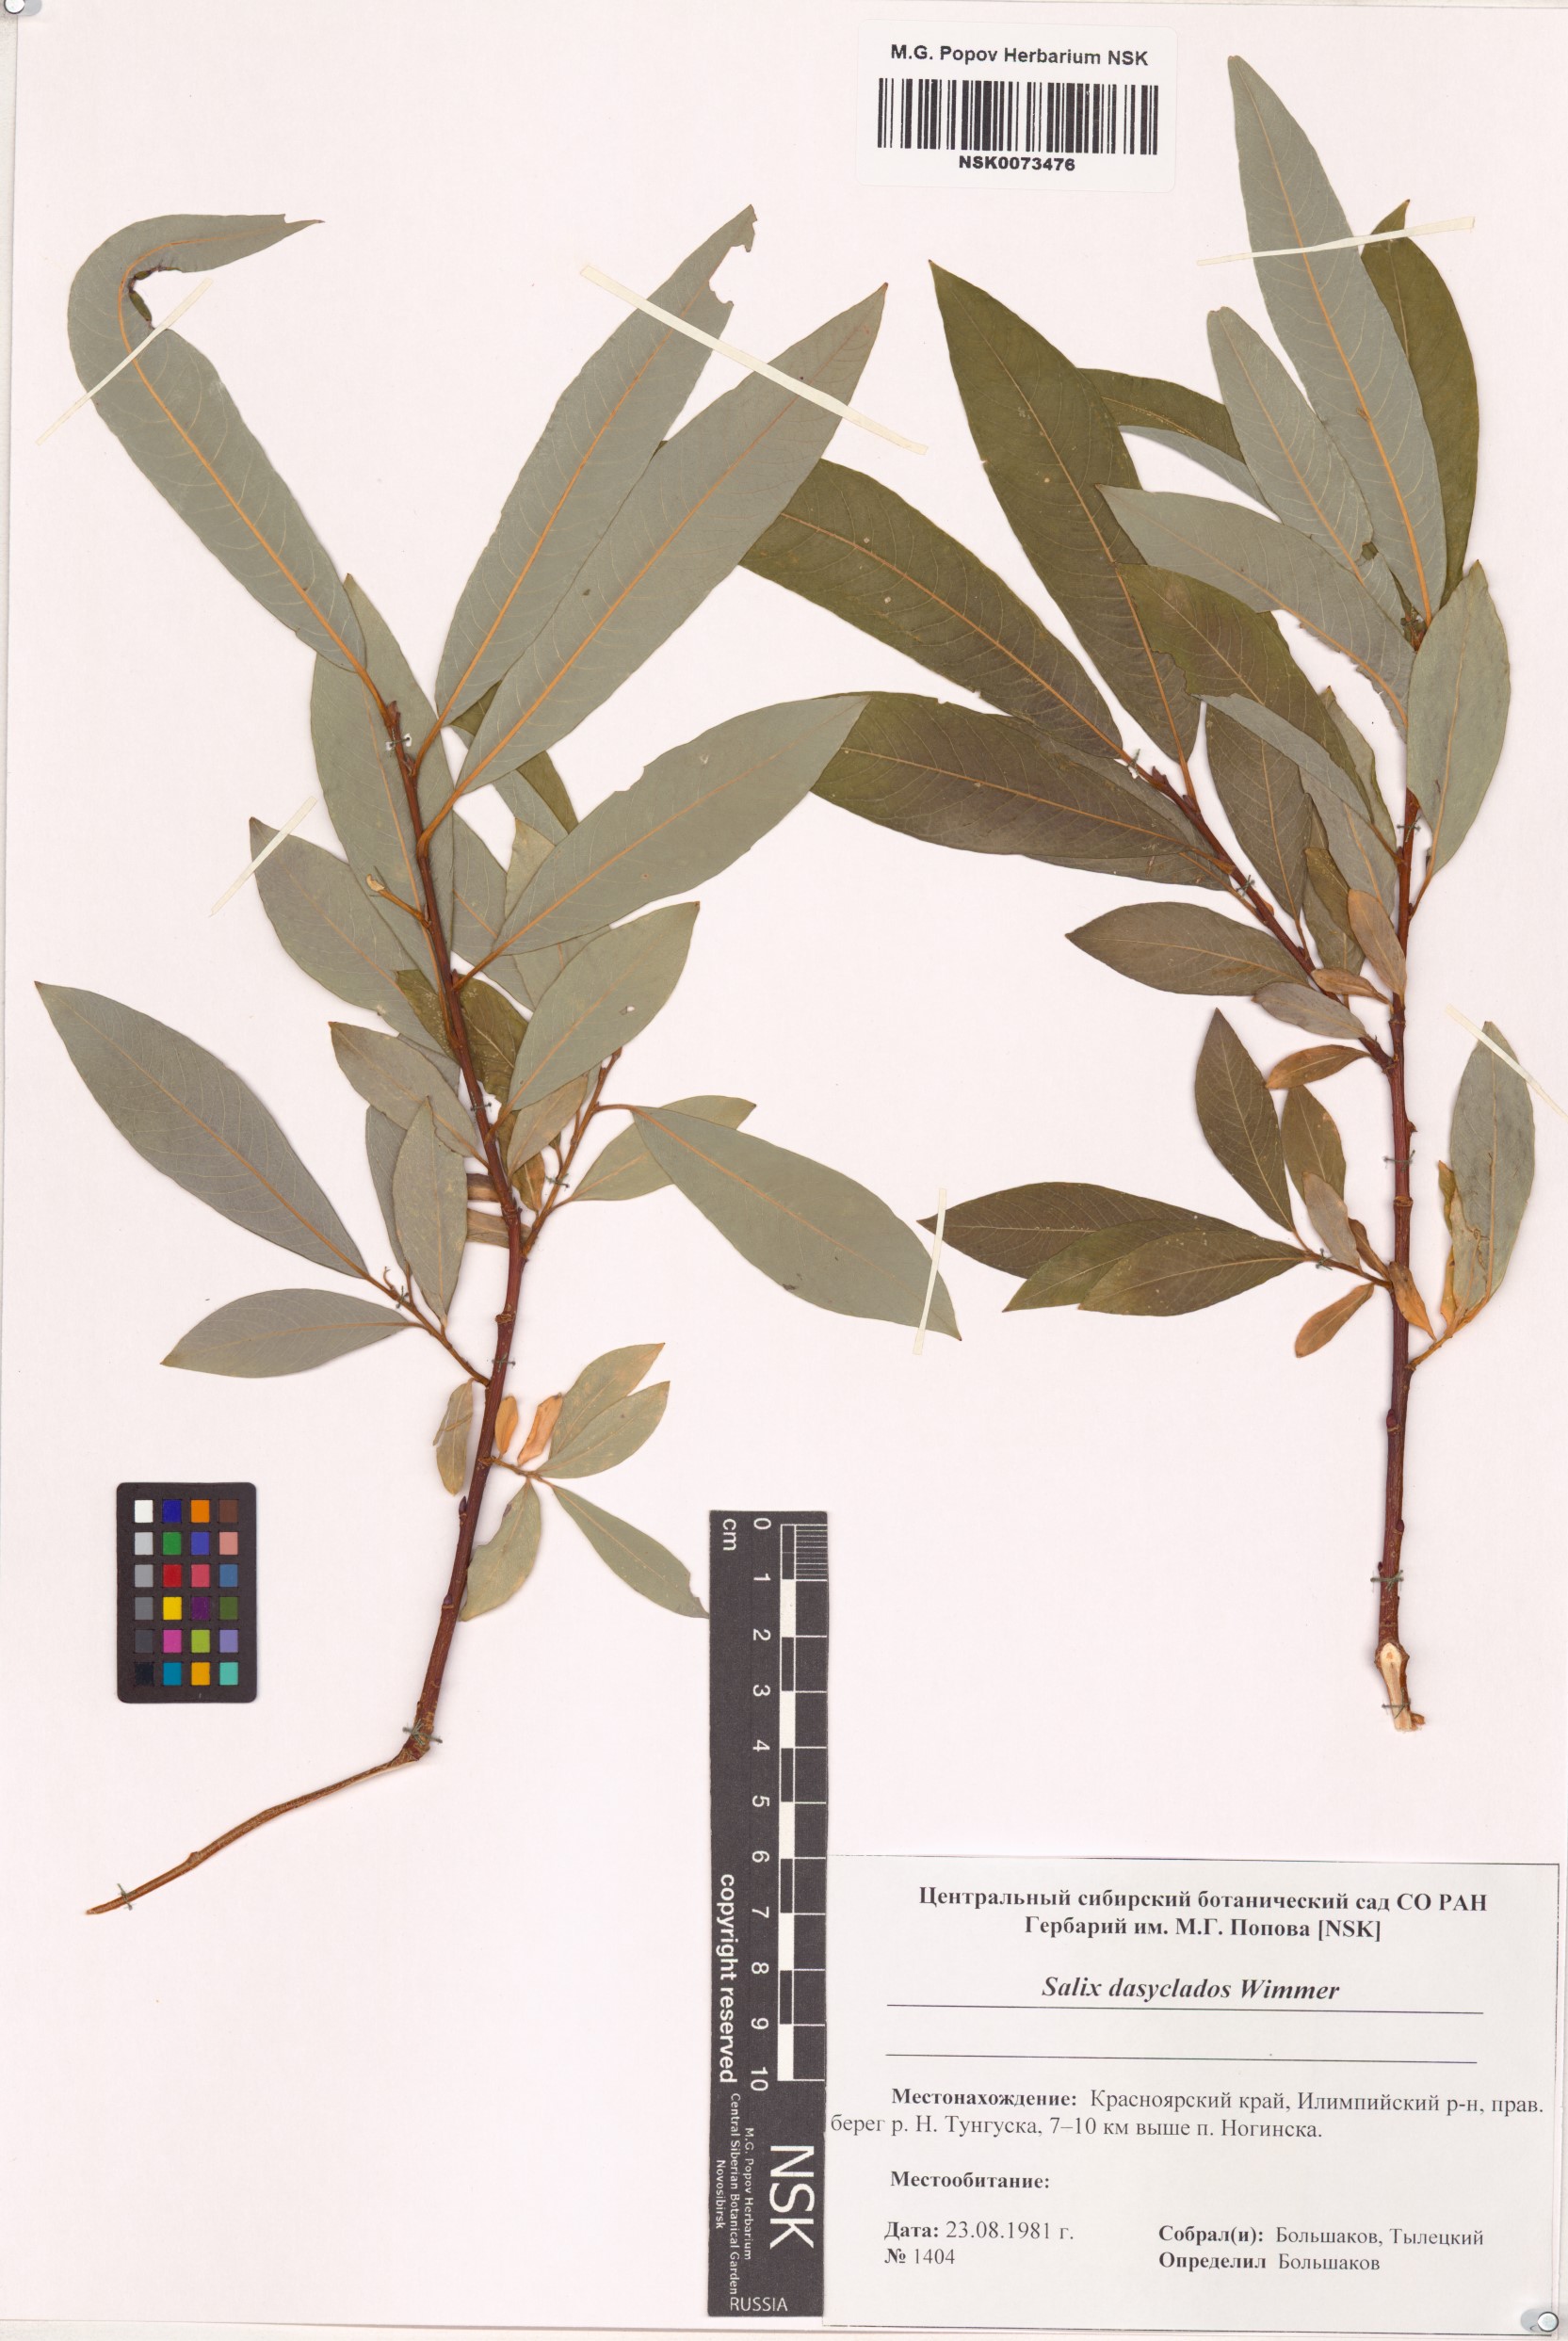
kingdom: Plantae
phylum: Tracheophyta
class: Magnoliopsida
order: Malpighiales
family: Salicaceae
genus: Salix
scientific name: Salix gmelinii
